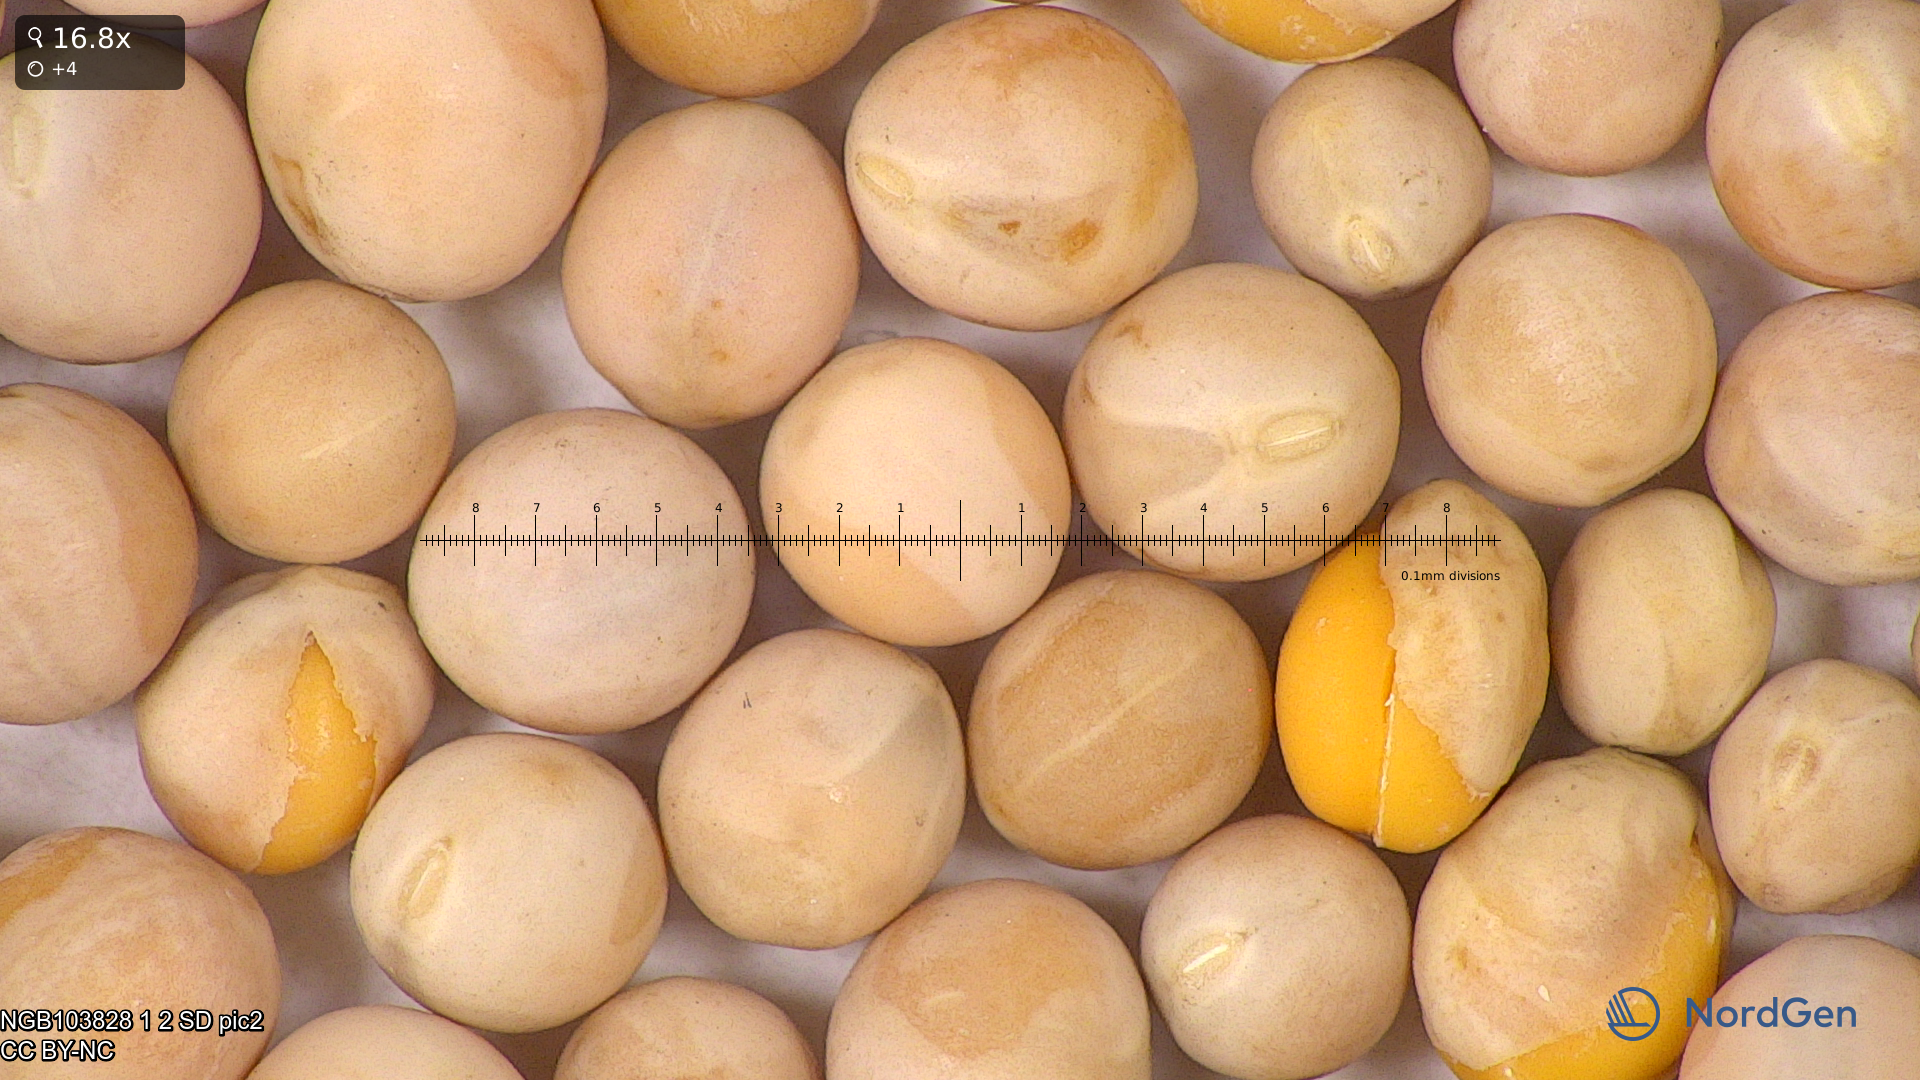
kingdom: Plantae
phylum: Tracheophyta
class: Magnoliopsida
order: Fabales
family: Fabaceae
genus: Lathyrus
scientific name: Lathyrus oleraceus
